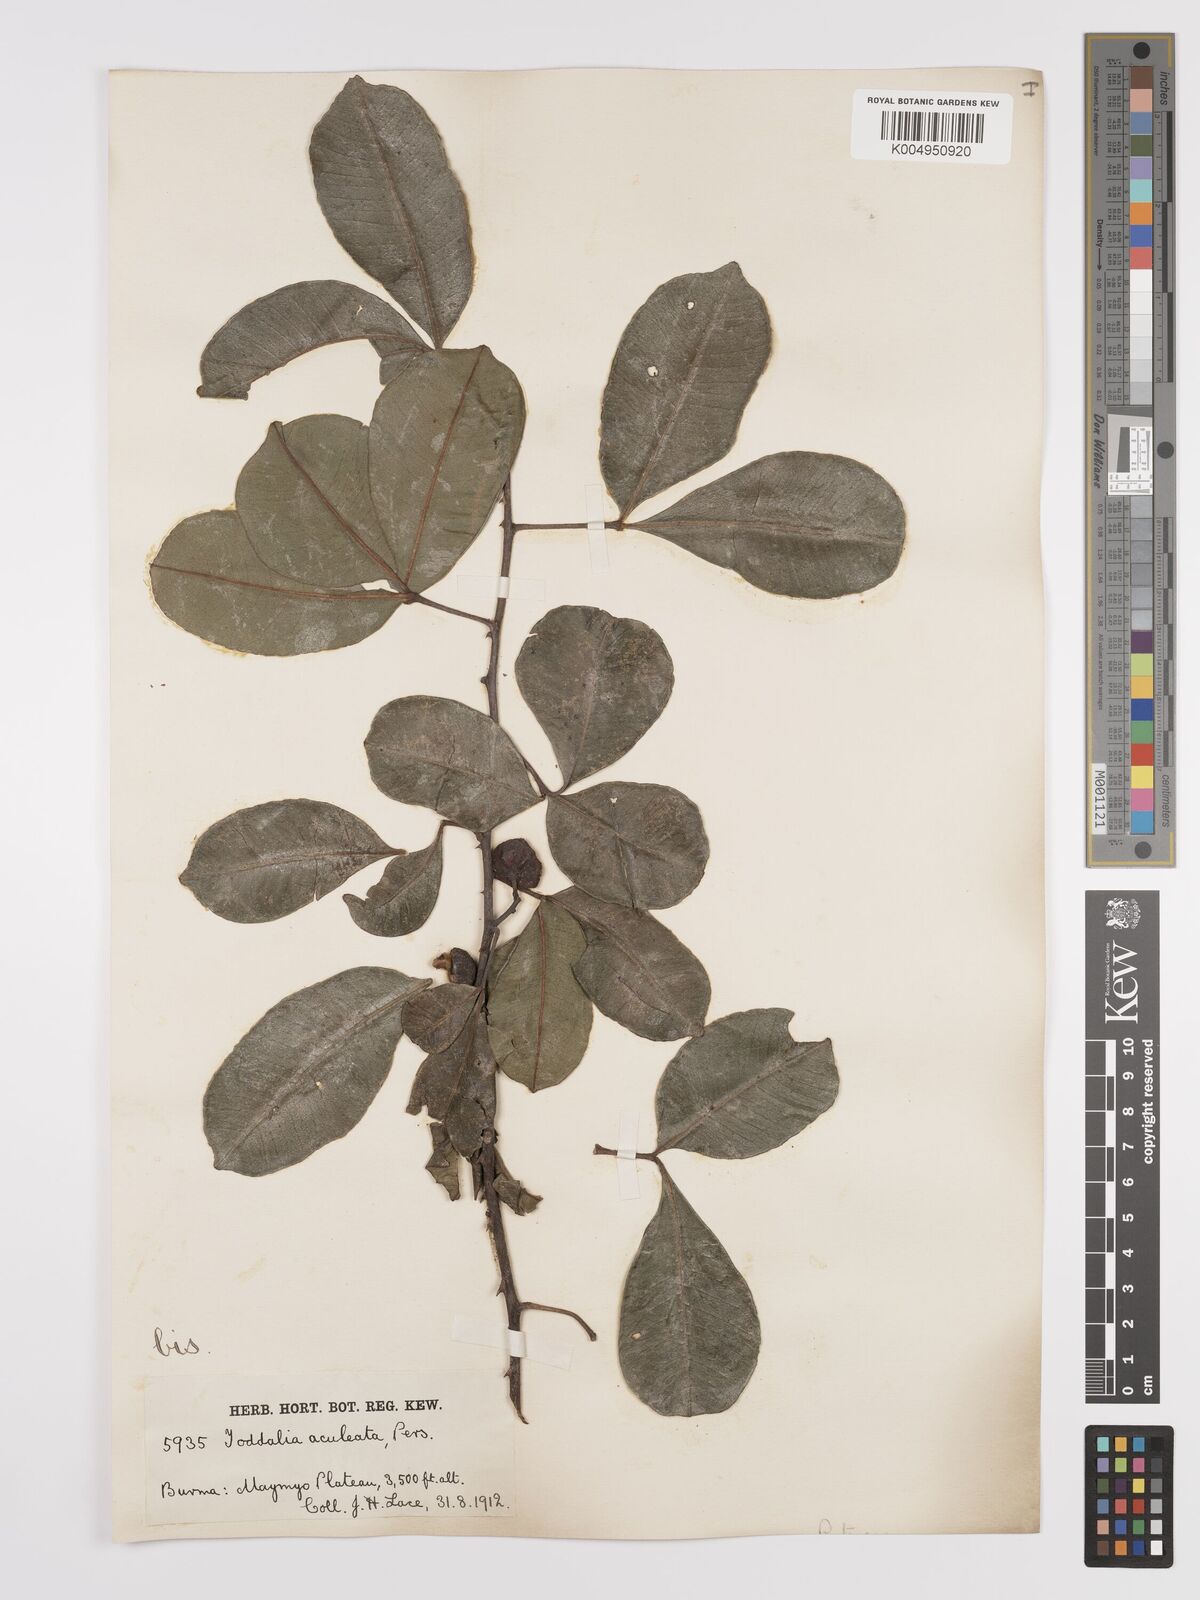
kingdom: Plantae
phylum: Tracheophyta
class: Magnoliopsida
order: Sapindales
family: Rutaceae
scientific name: Rutaceae
